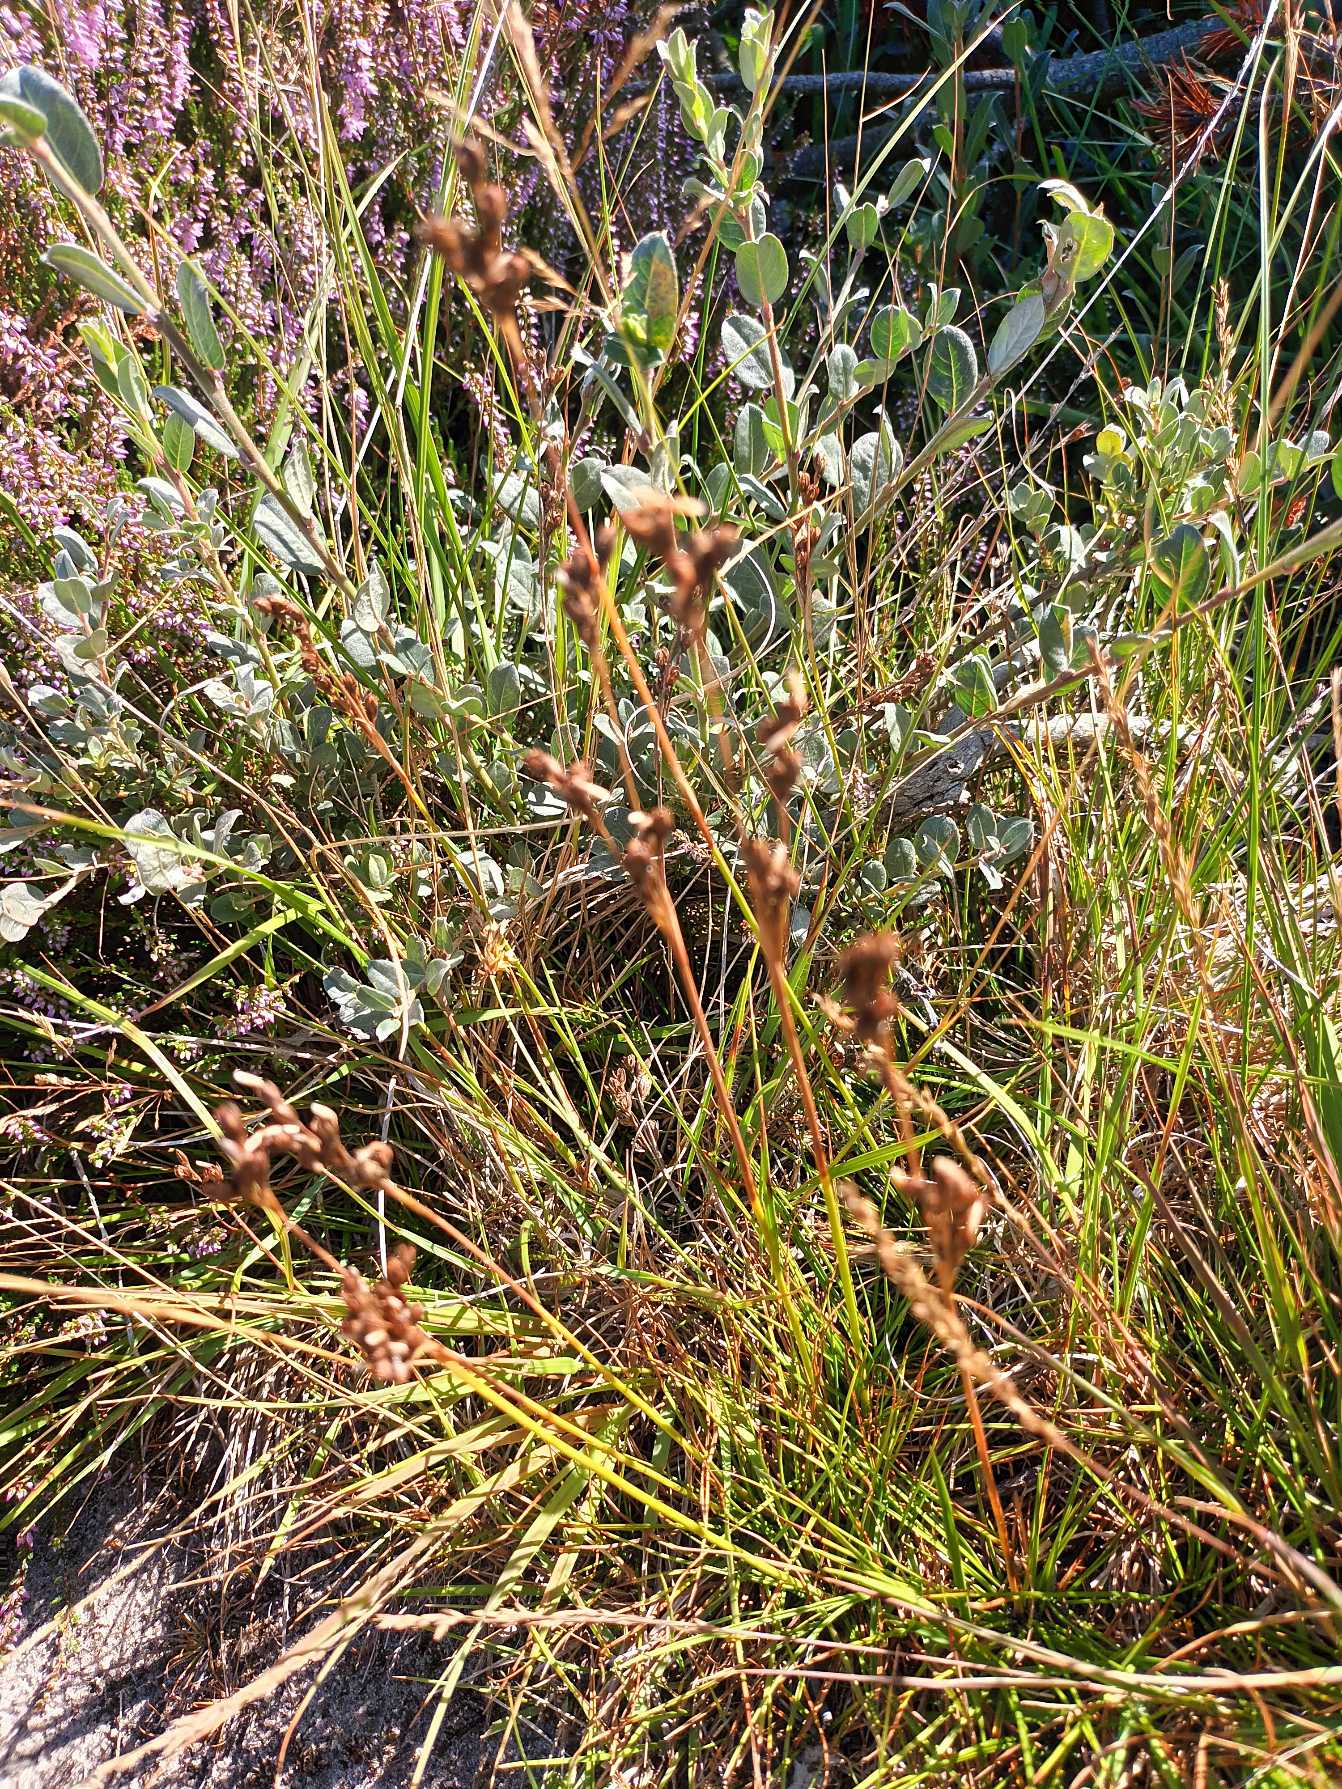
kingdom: Plantae
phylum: Tracheophyta
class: Liliopsida
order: Poales
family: Juncaceae
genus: Juncus
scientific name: Juncus squarrosus
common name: Børste-siv
